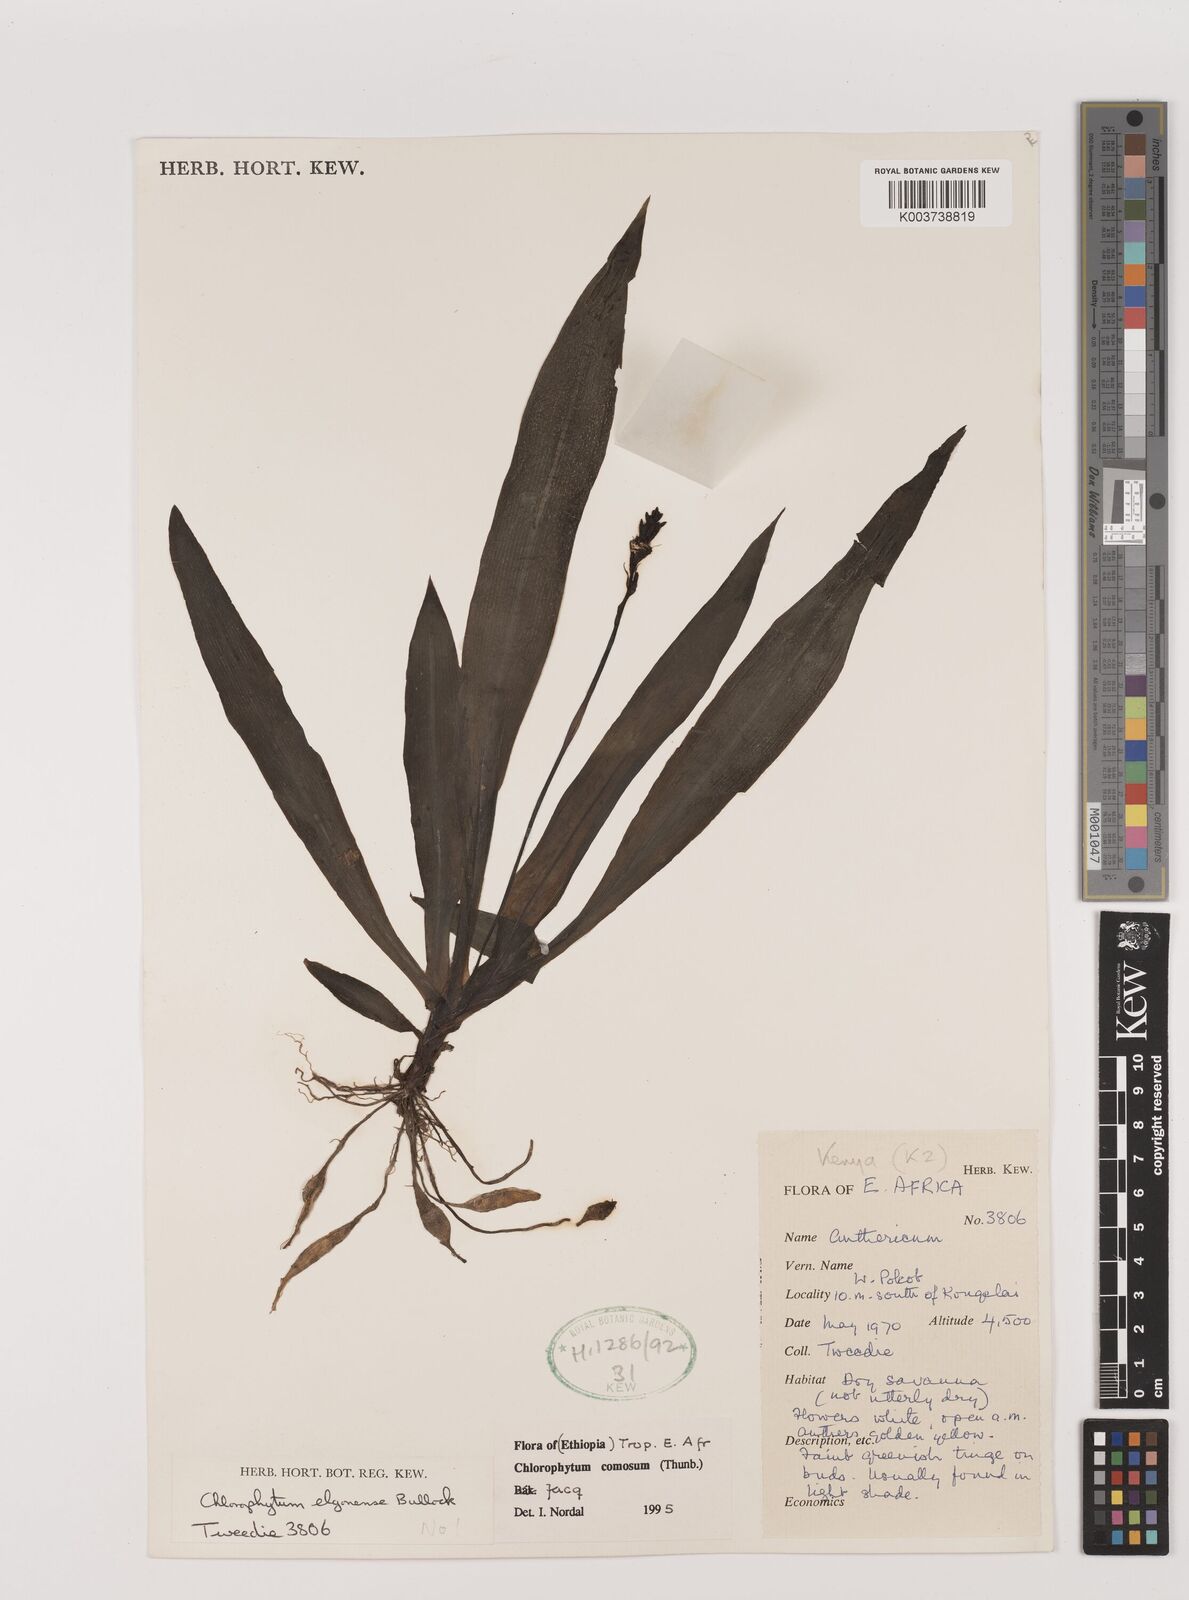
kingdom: Plantae
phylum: Tracheophyta
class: Liliopsida
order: Asparagales
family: Asparagaceae
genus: Chlorophytum
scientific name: Chlorophytum comosum
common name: Spider plant
